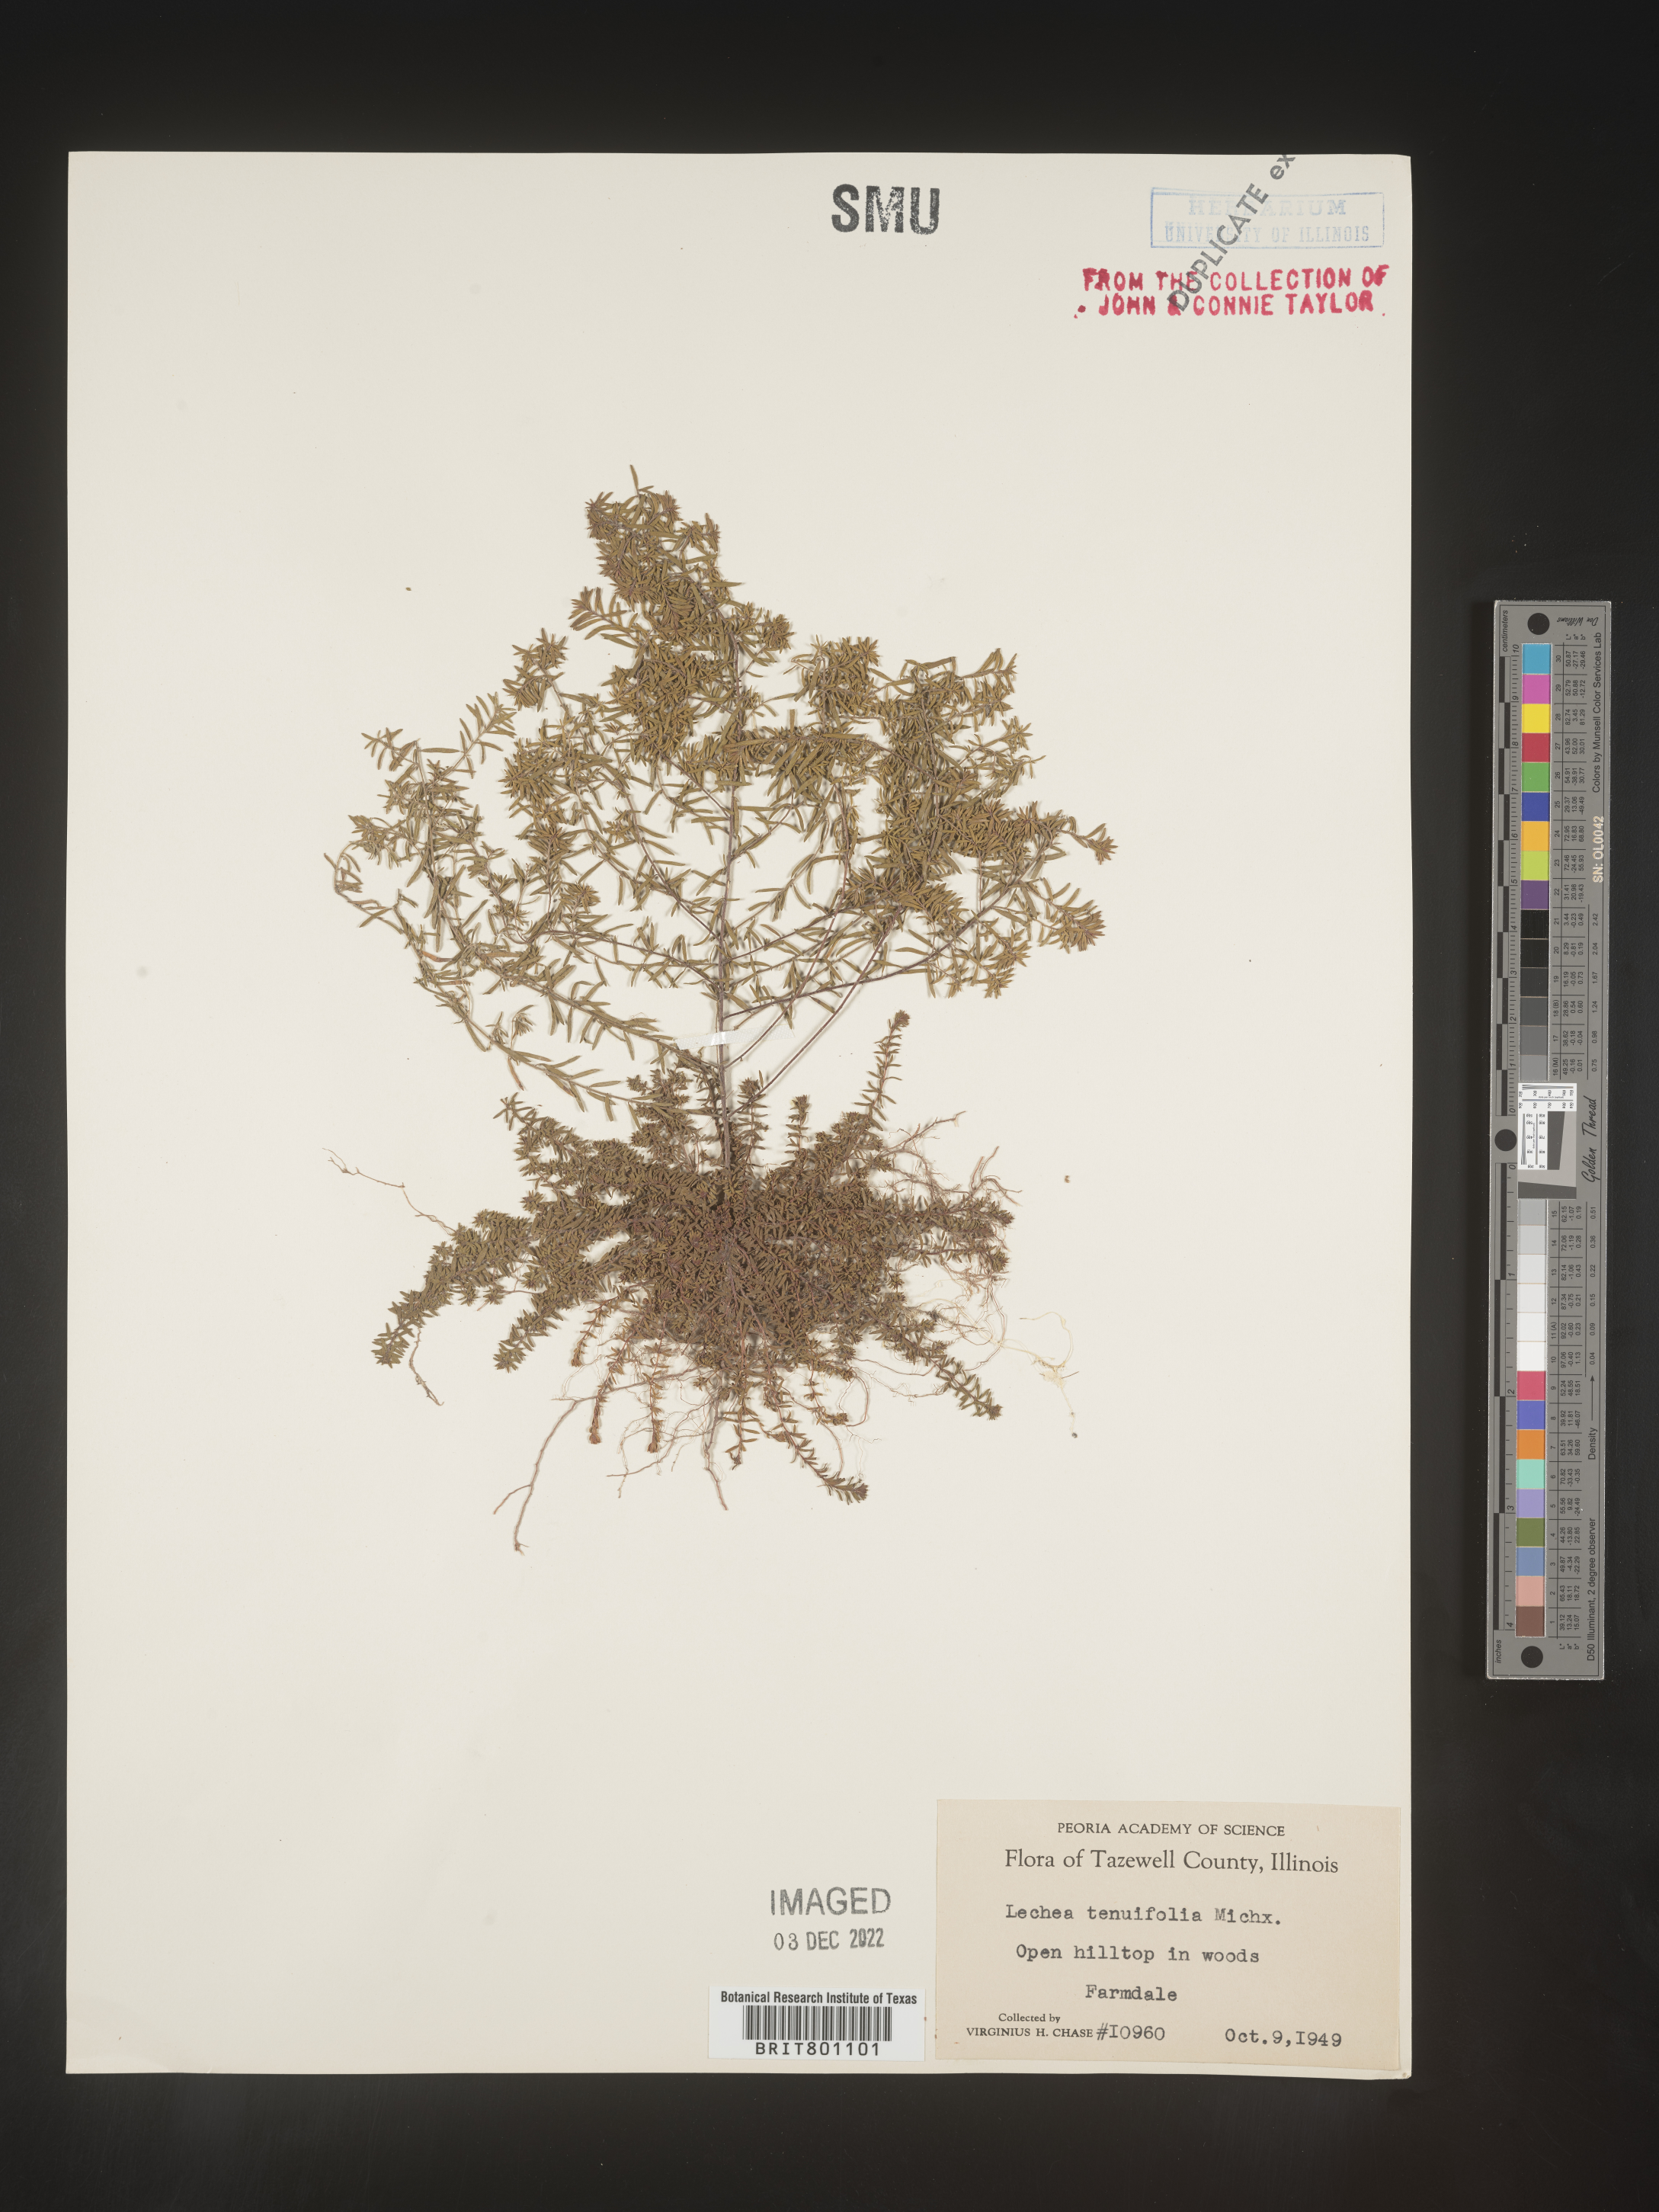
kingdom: Plantae
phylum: Tracheophyta
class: Magnoliopsida
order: Malvales
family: Cistaceae
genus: Lechea
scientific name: Lechea tenuifolia
